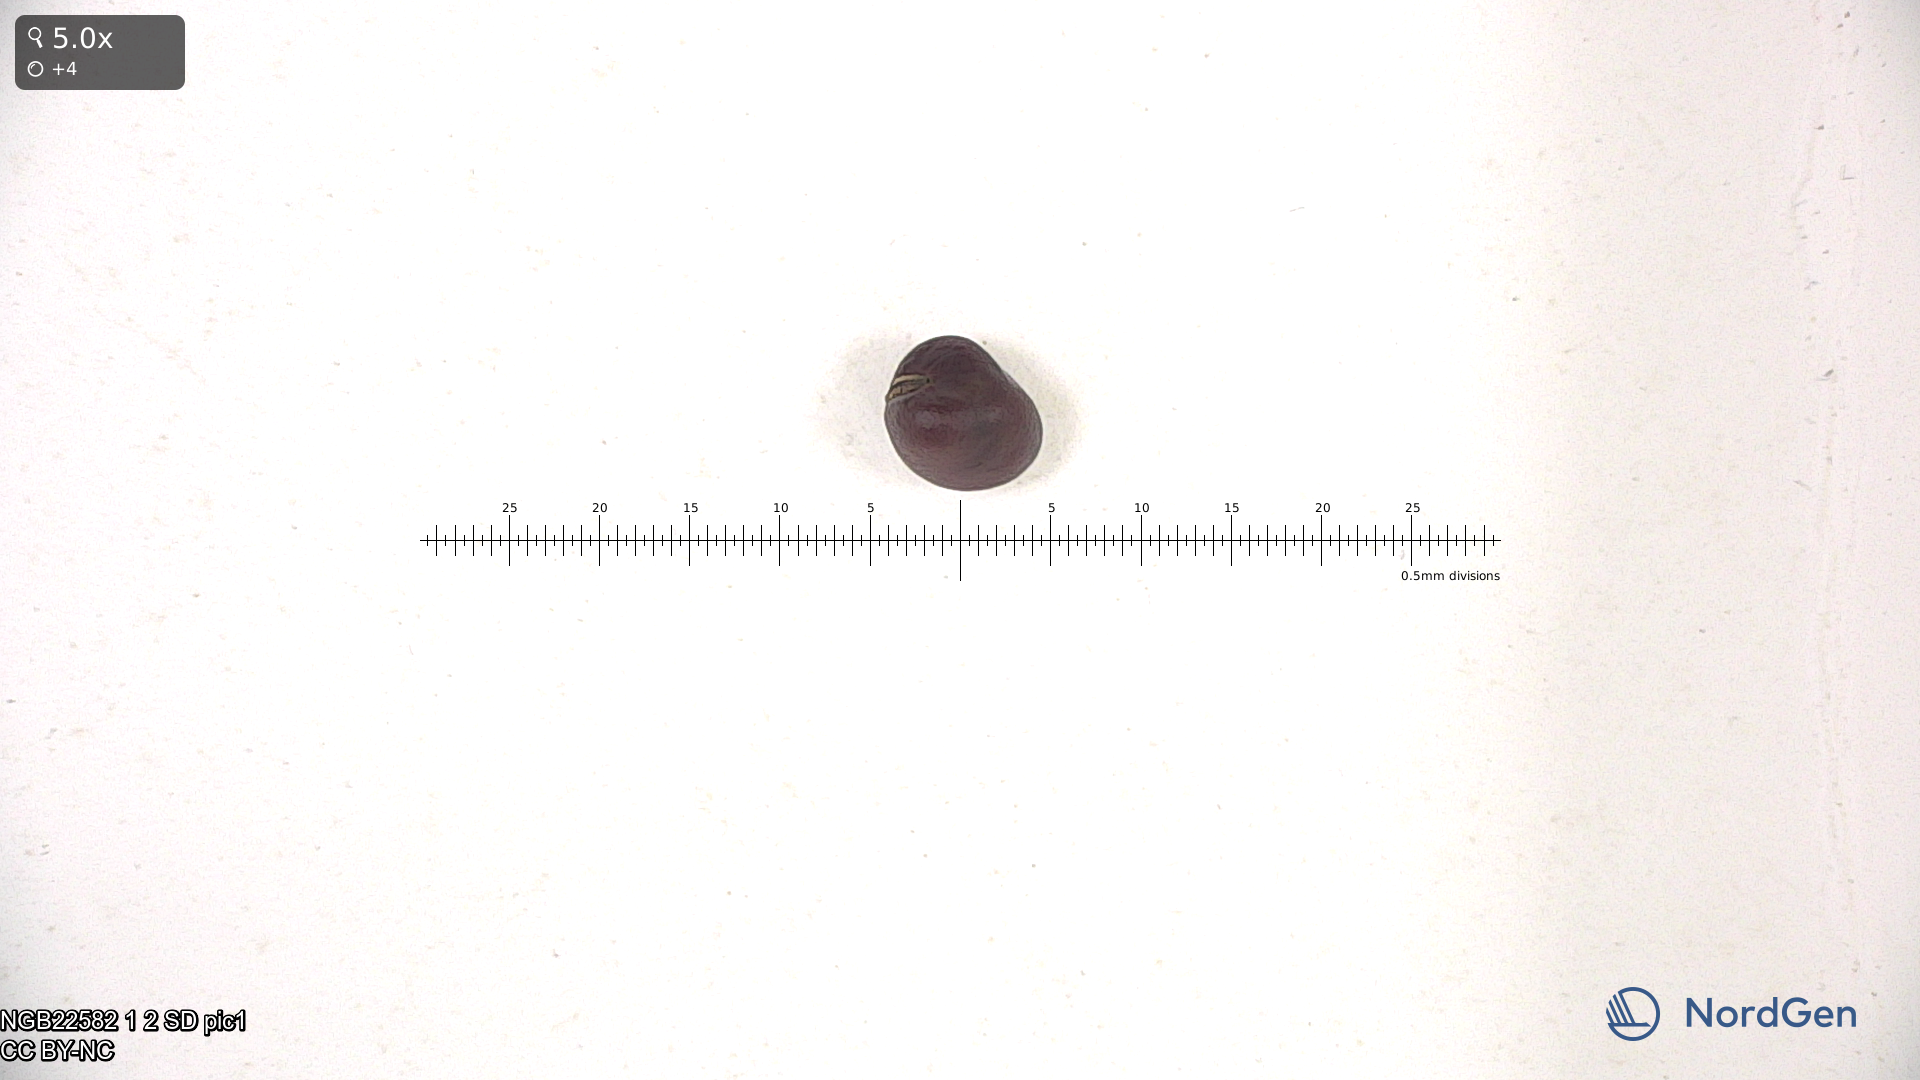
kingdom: Plantae
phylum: Tracheophyta
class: Magnoliopsida
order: Fabales
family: Fabaceae
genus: Vicia
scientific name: Vicia faba
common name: Broad bean
